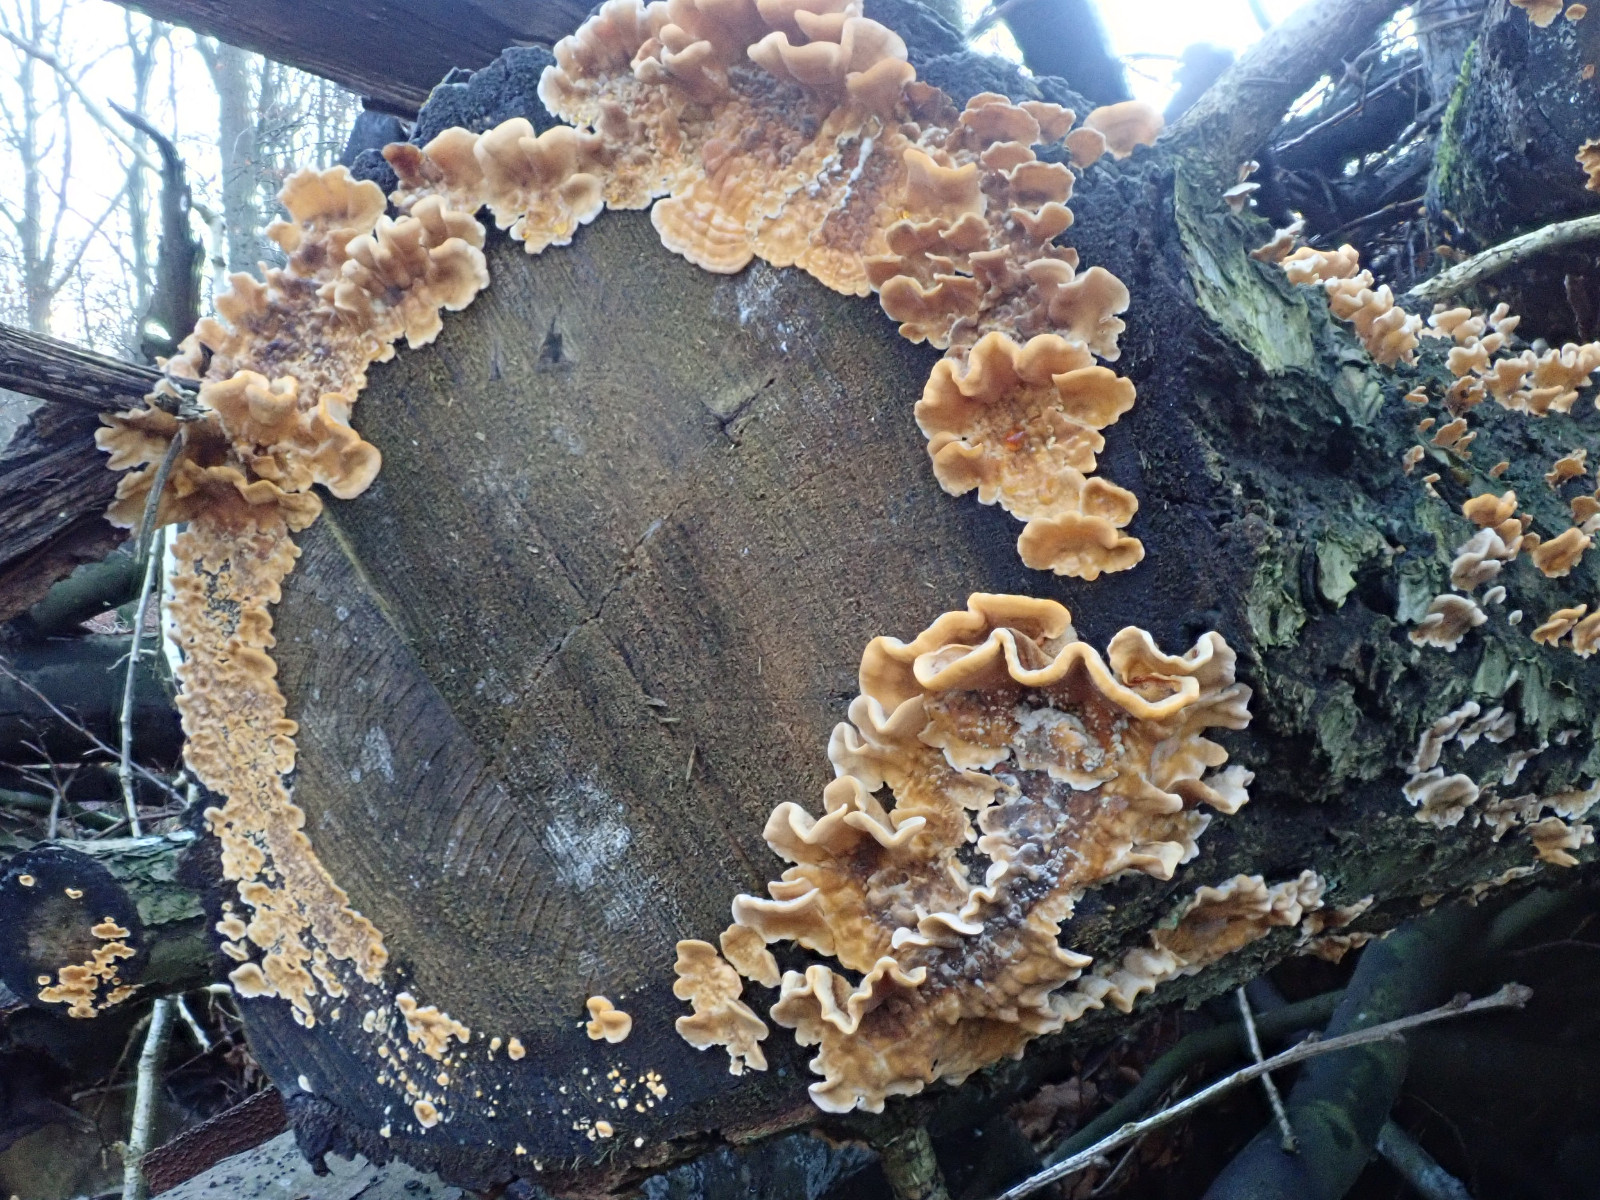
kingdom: Fungi
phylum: Basidiomycota
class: Agaricomycetes
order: Russulales
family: Stereaceae
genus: Stereum
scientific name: Stereum hirsutum
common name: håret lædersvamp
